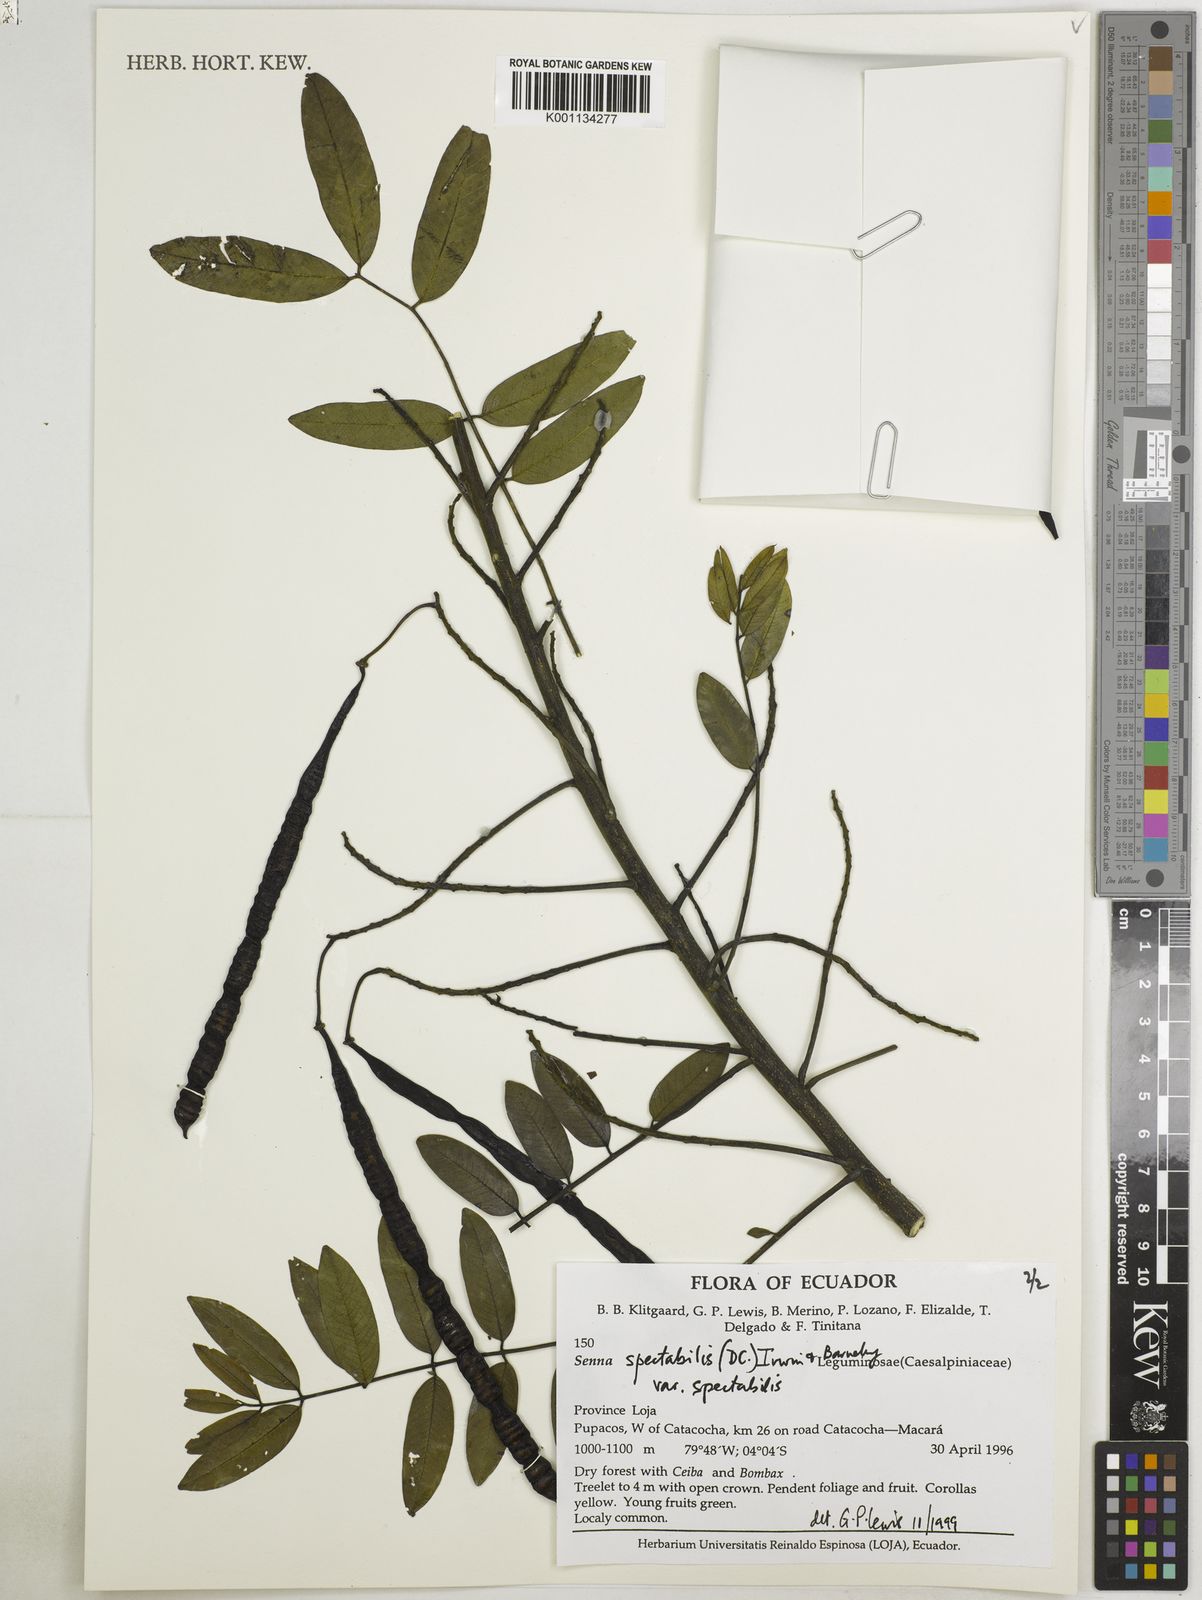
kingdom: Plantae
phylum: Tracheophyta
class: Magnoliopsida
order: Fabales
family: Fabaceae
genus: Senna
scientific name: Senna spectabilis
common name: Casia amarilla
